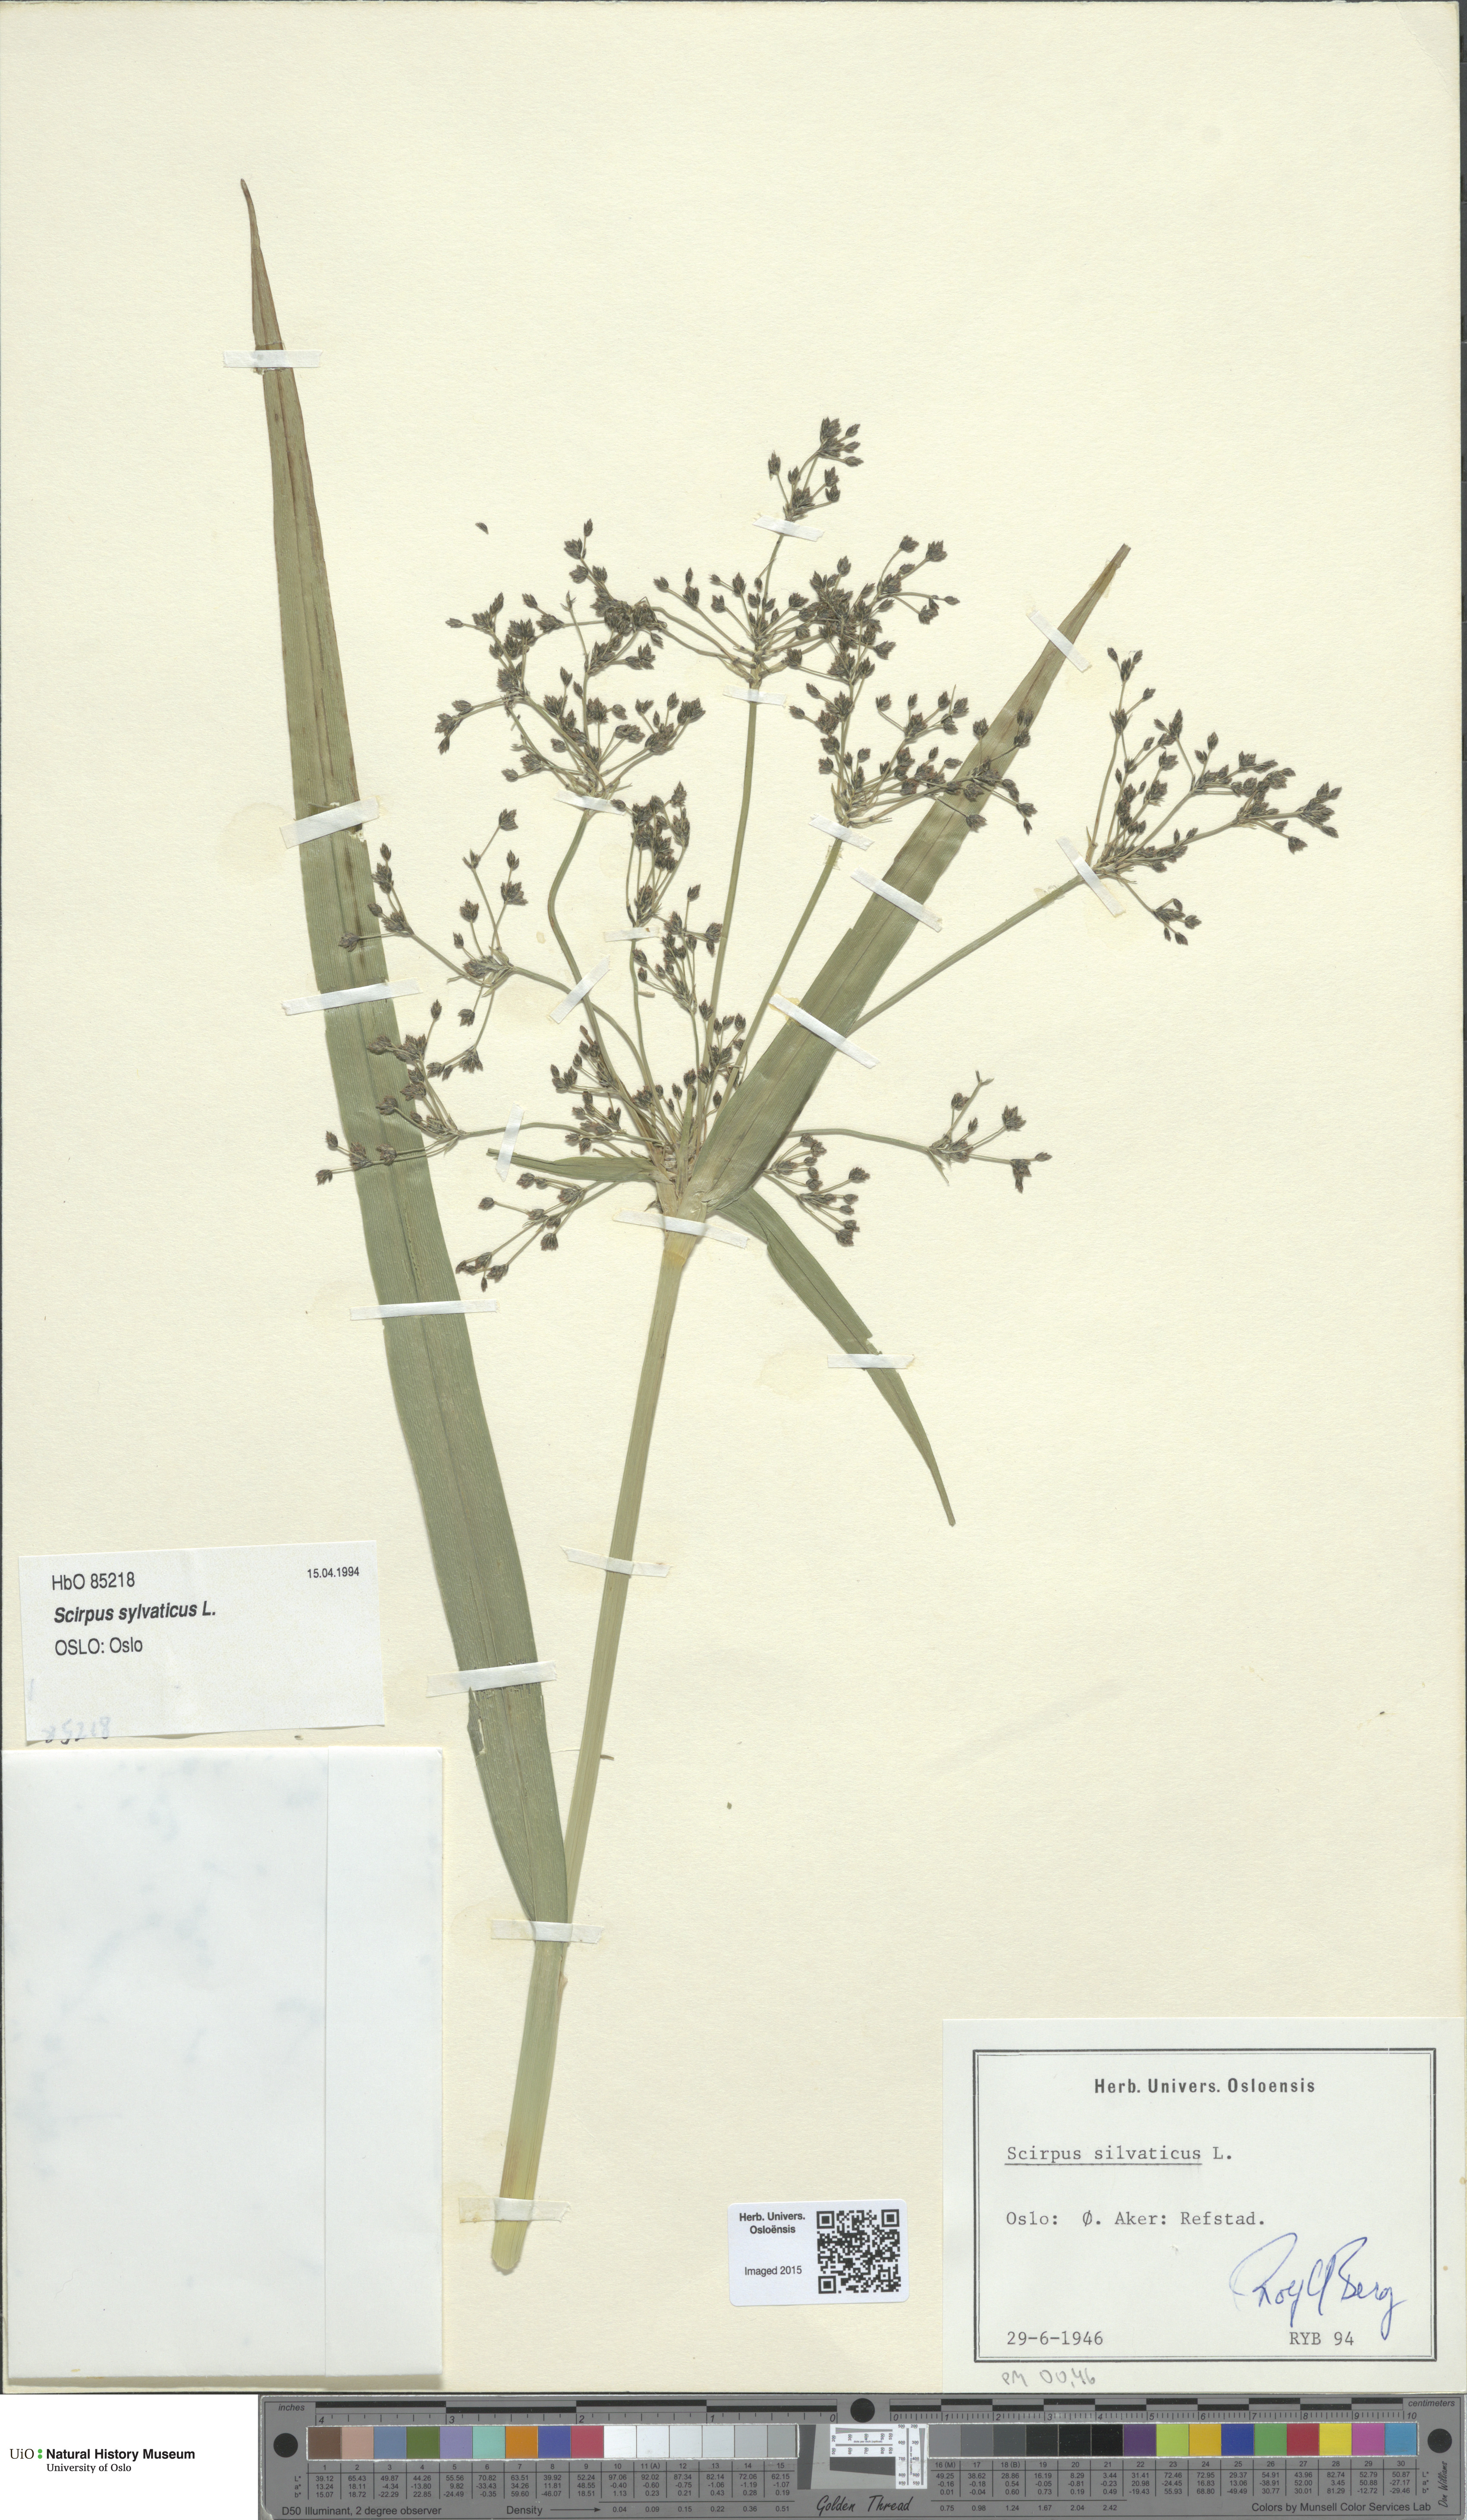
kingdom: Plantae
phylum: Tracheophyta
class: Liliopsida
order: Poales
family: Cyperaceae
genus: Scirpus
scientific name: Scirpus sylvaticus
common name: Wood club-rush
